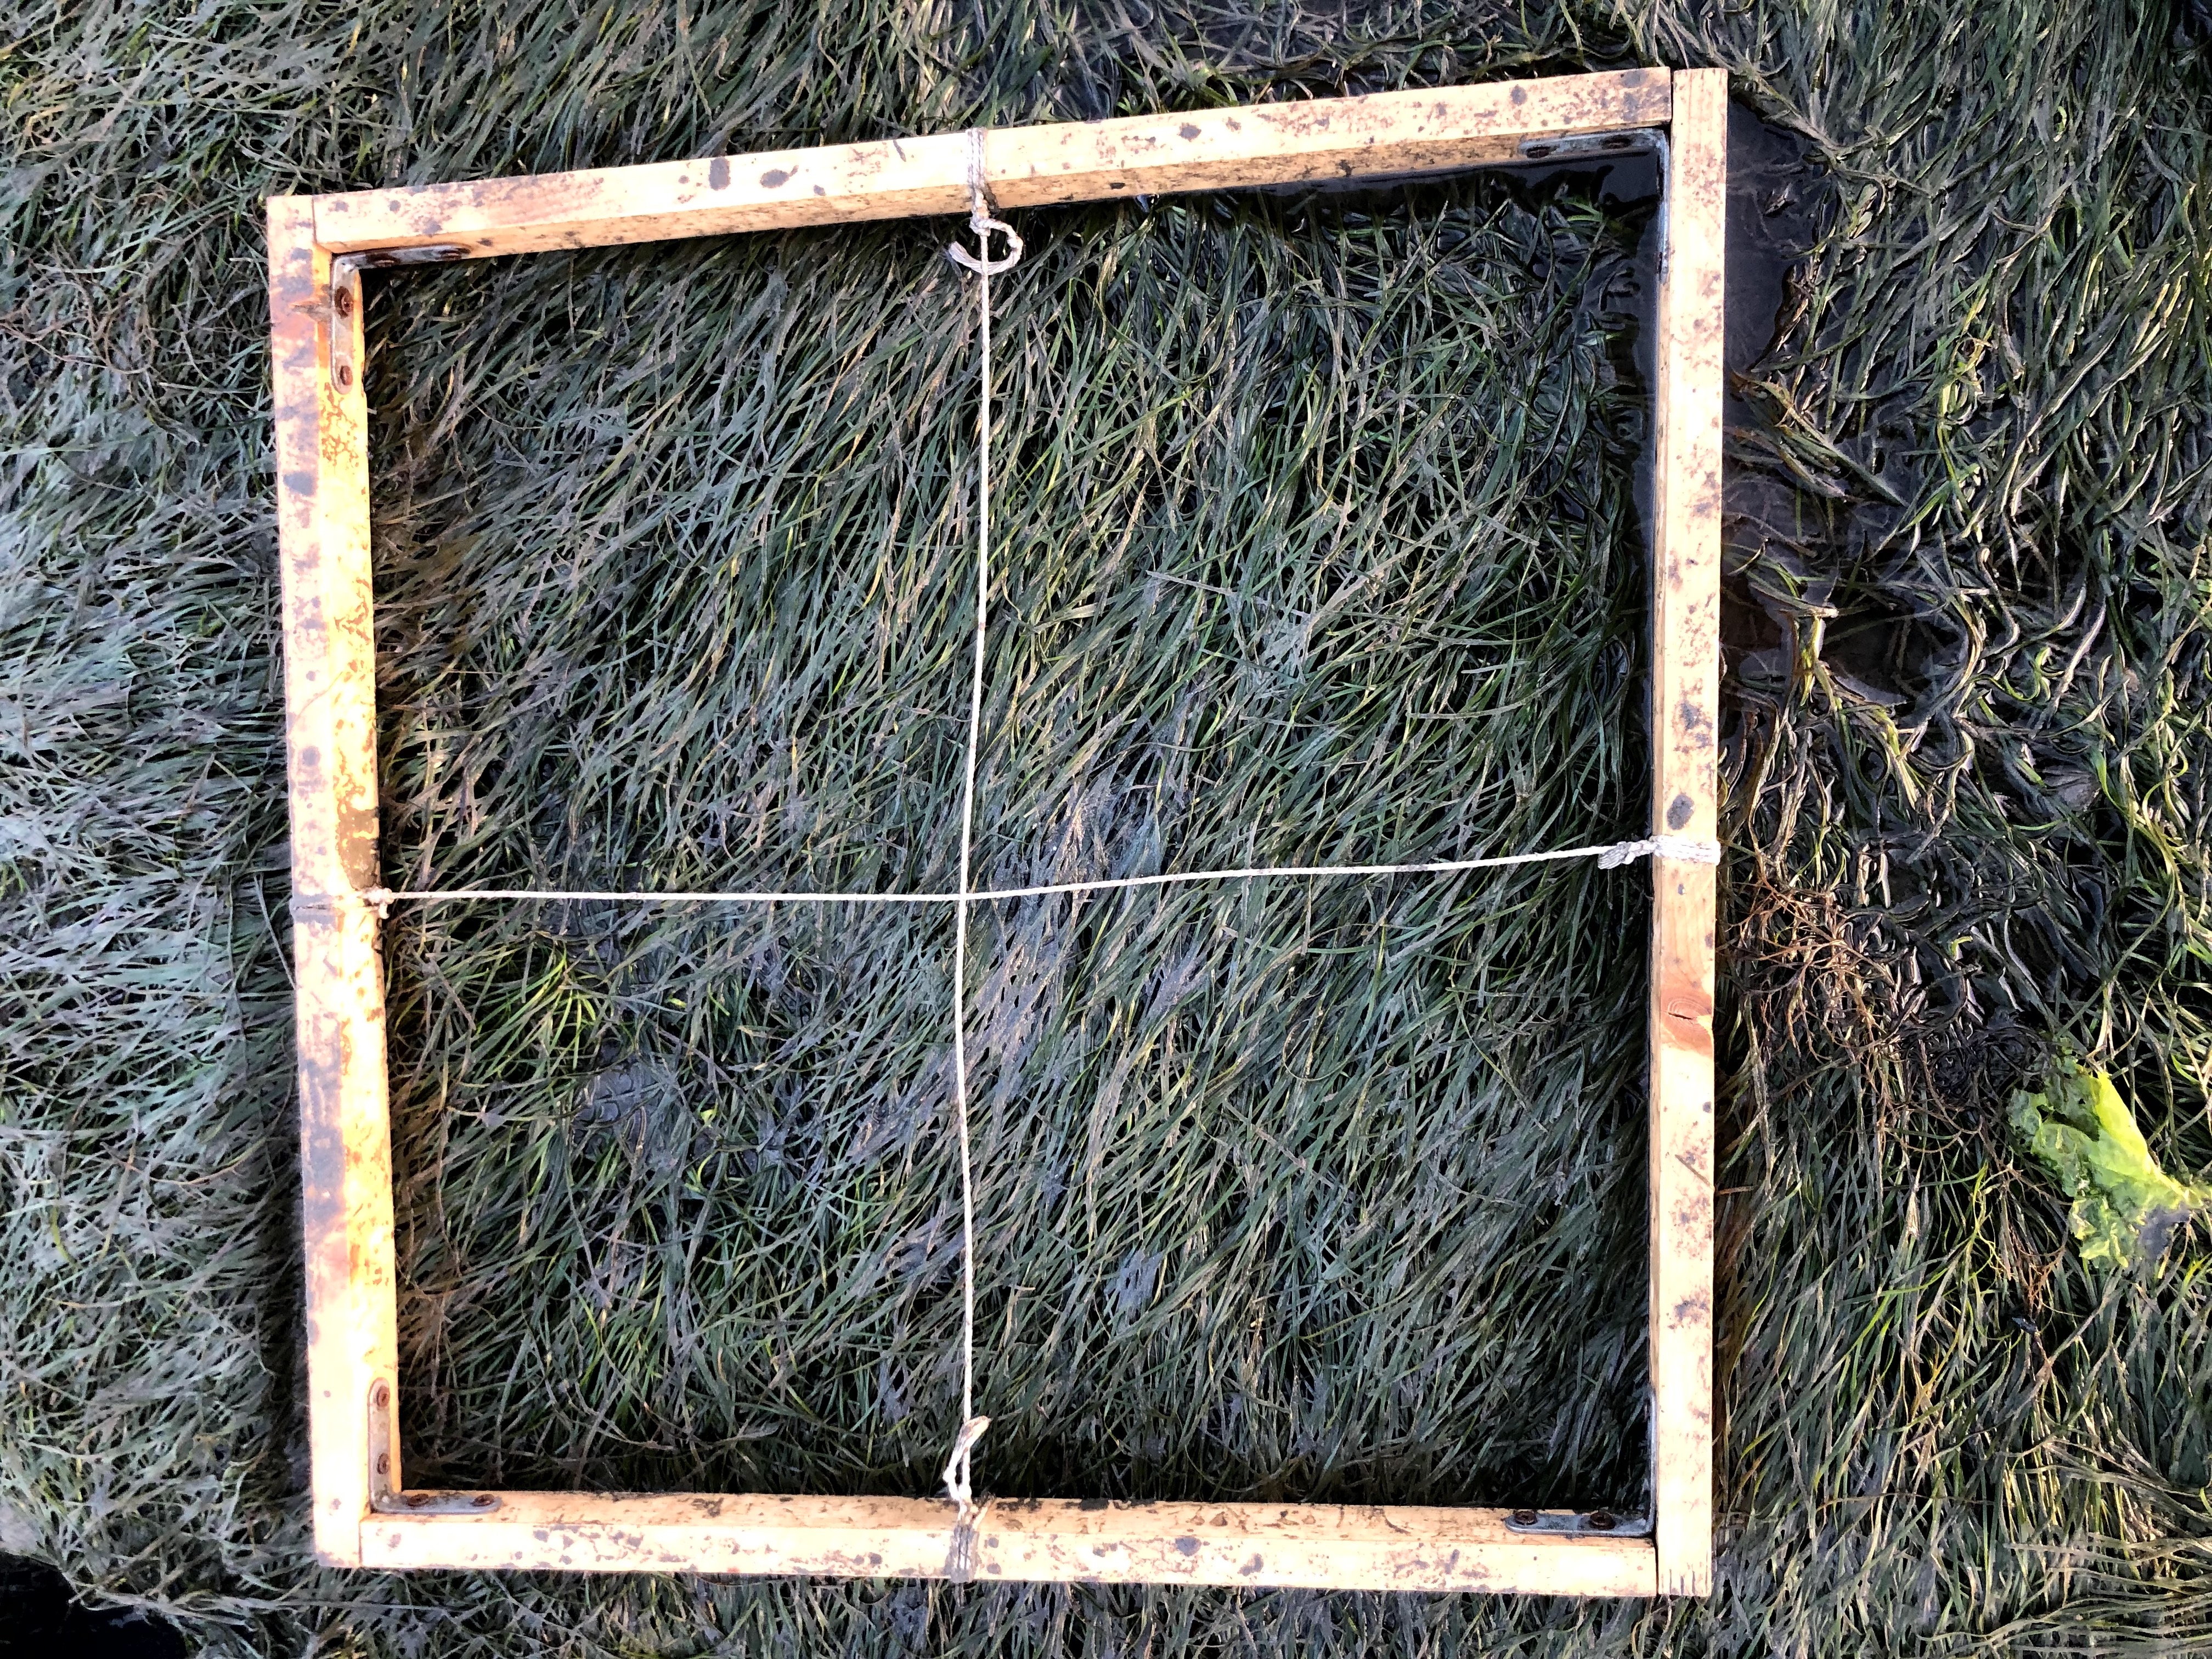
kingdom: Plantae
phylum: Tracheophyta
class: Liliopsida
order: Alismatales
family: Zosteraceae
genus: Zostera
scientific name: Zostera noltii
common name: Dwarf eelgrass
